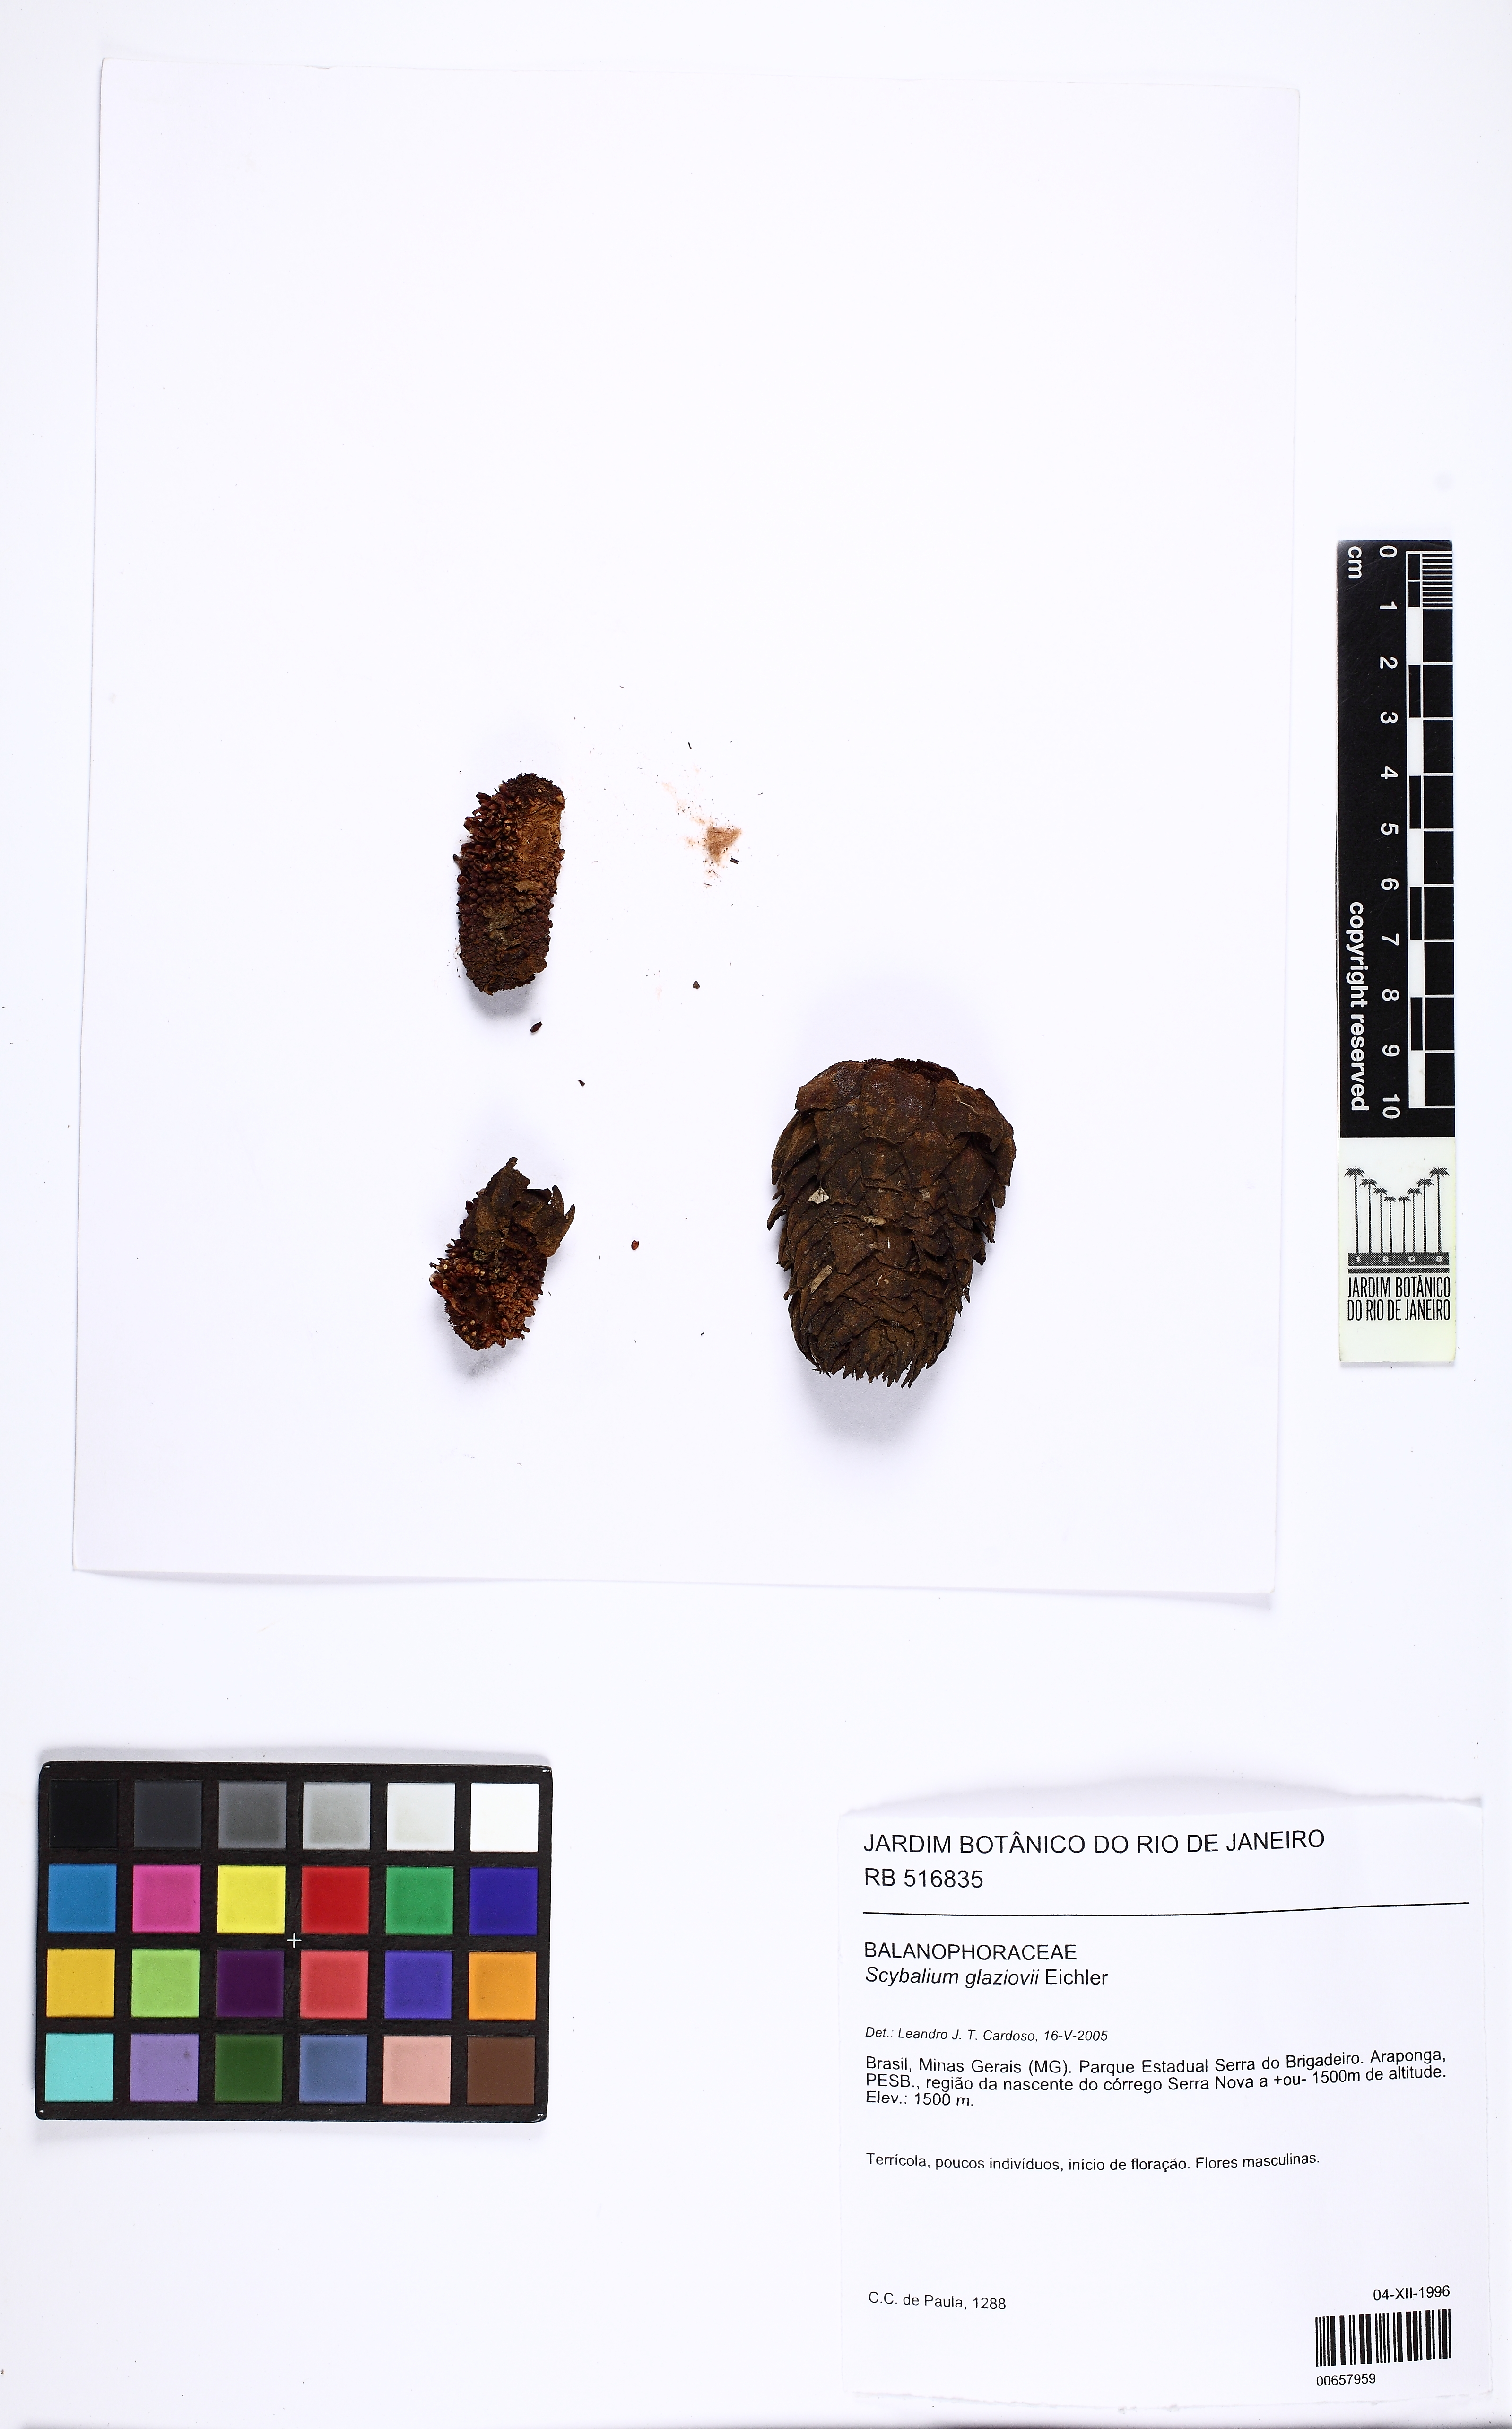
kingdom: Plantae
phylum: Tracheophyta
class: Magnoliopsida
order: Santalales
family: Balanophoraceae
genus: Scybalium
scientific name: Scybalium glaziovii
